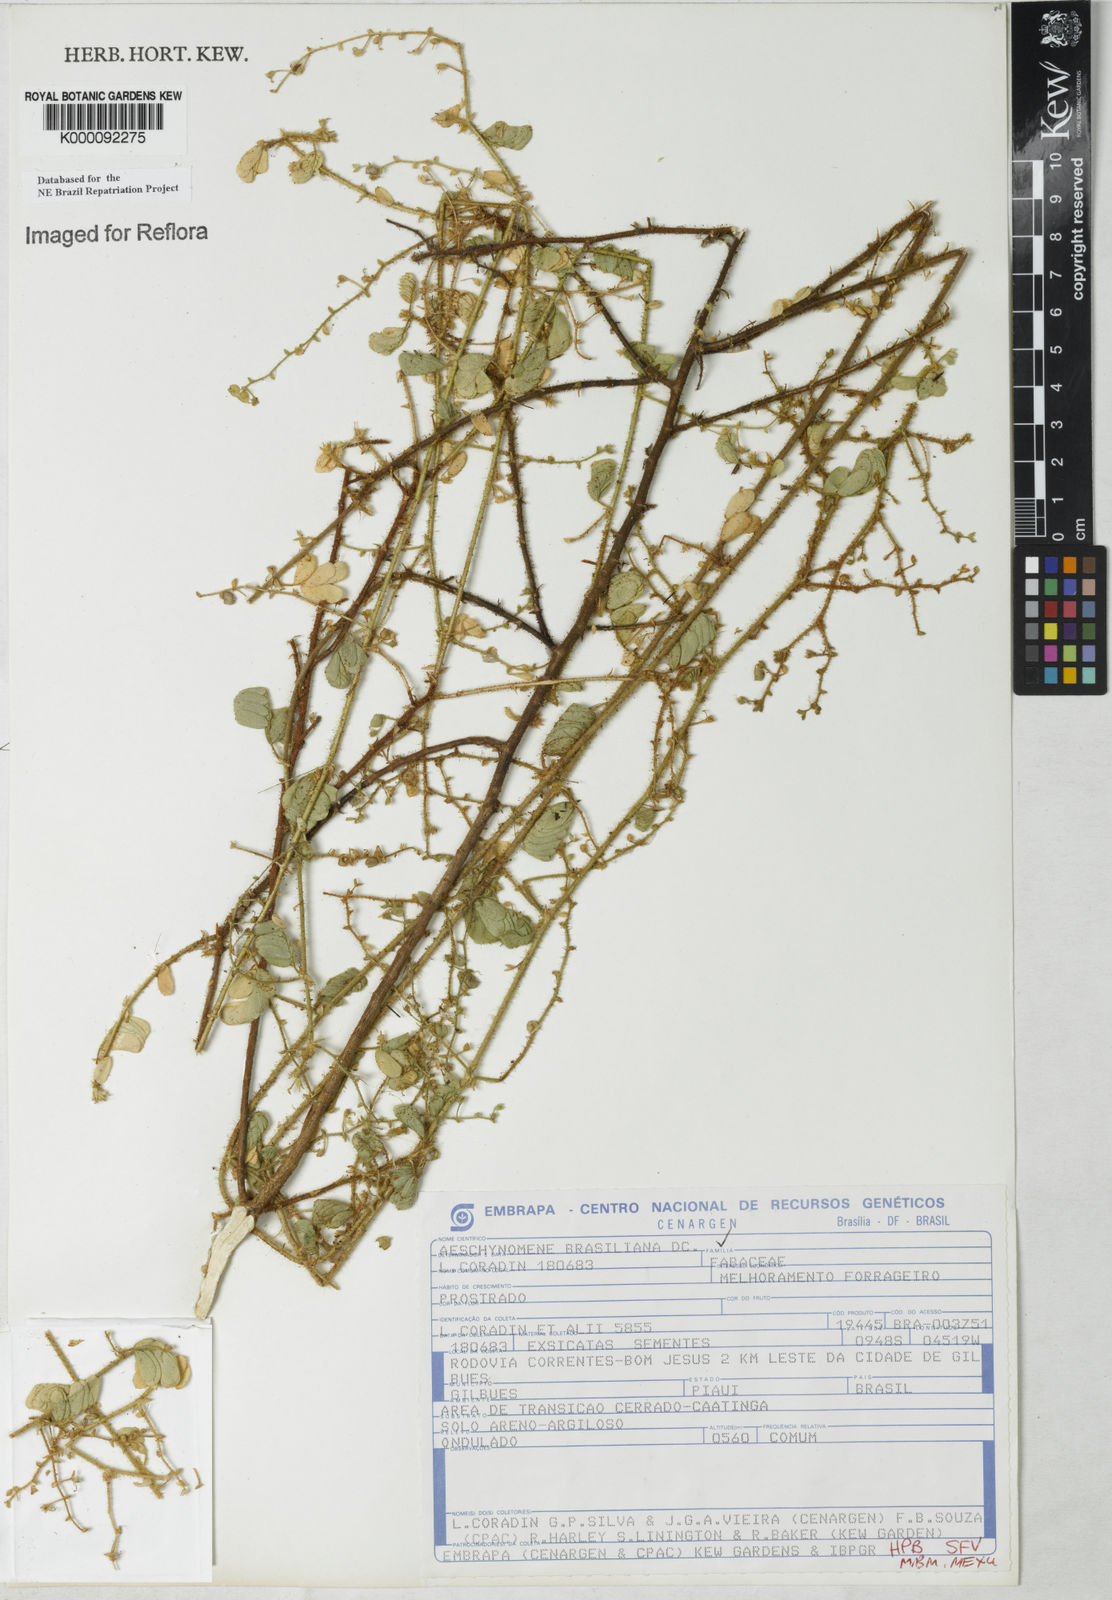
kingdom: Plantae
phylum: Tracheophyta
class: Magnoliopsida
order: Fabales
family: Fabaceae
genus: Ctenodon
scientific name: Ctenodon brasilianus
